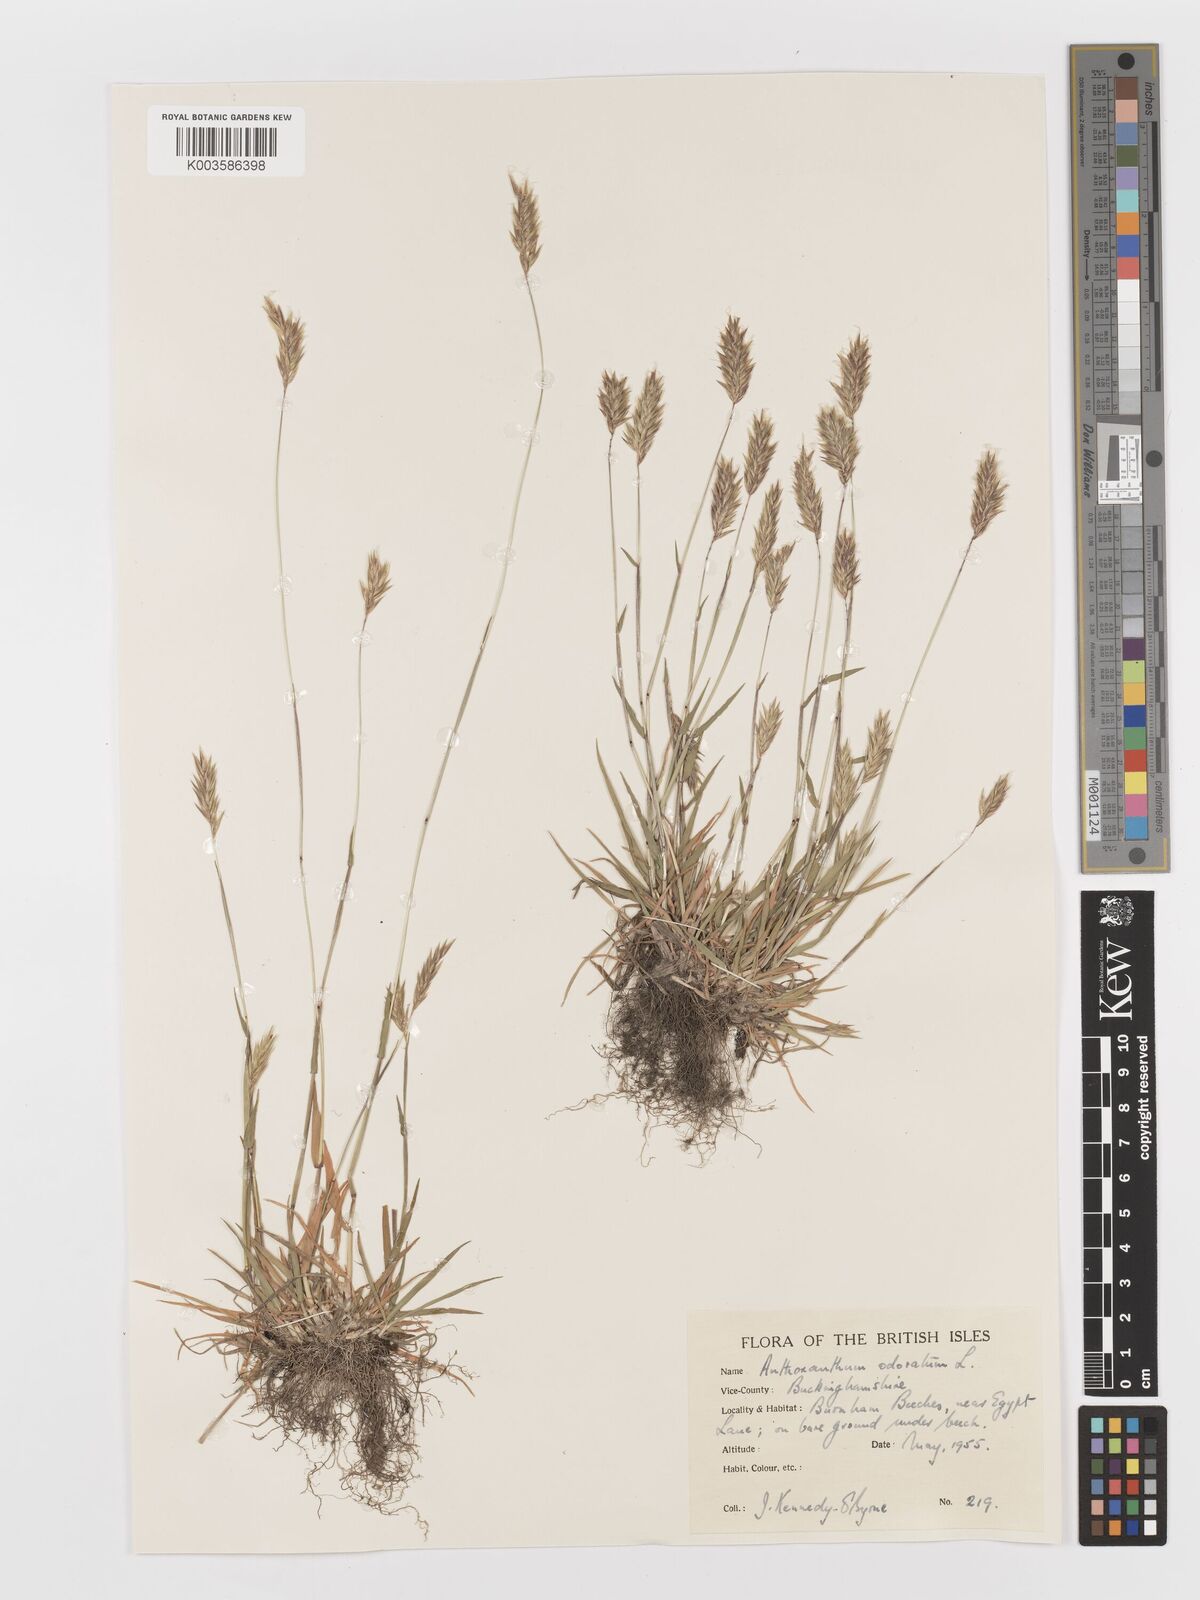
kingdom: Plantae
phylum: Tracheophyta
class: Liliopsida
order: Poales
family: Poaceae
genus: Anthoxanthum
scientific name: Anthoxanthum odoratum
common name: Sweet vernalgrass
